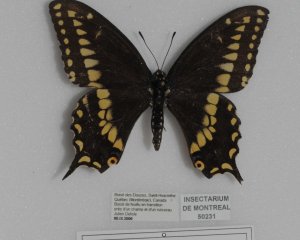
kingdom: Animalia
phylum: Arthropoda
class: Insecta
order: Lepidoptera
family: Papilionidae
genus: Papilio
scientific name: Papilio polyxenes
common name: Black Swallowtail
